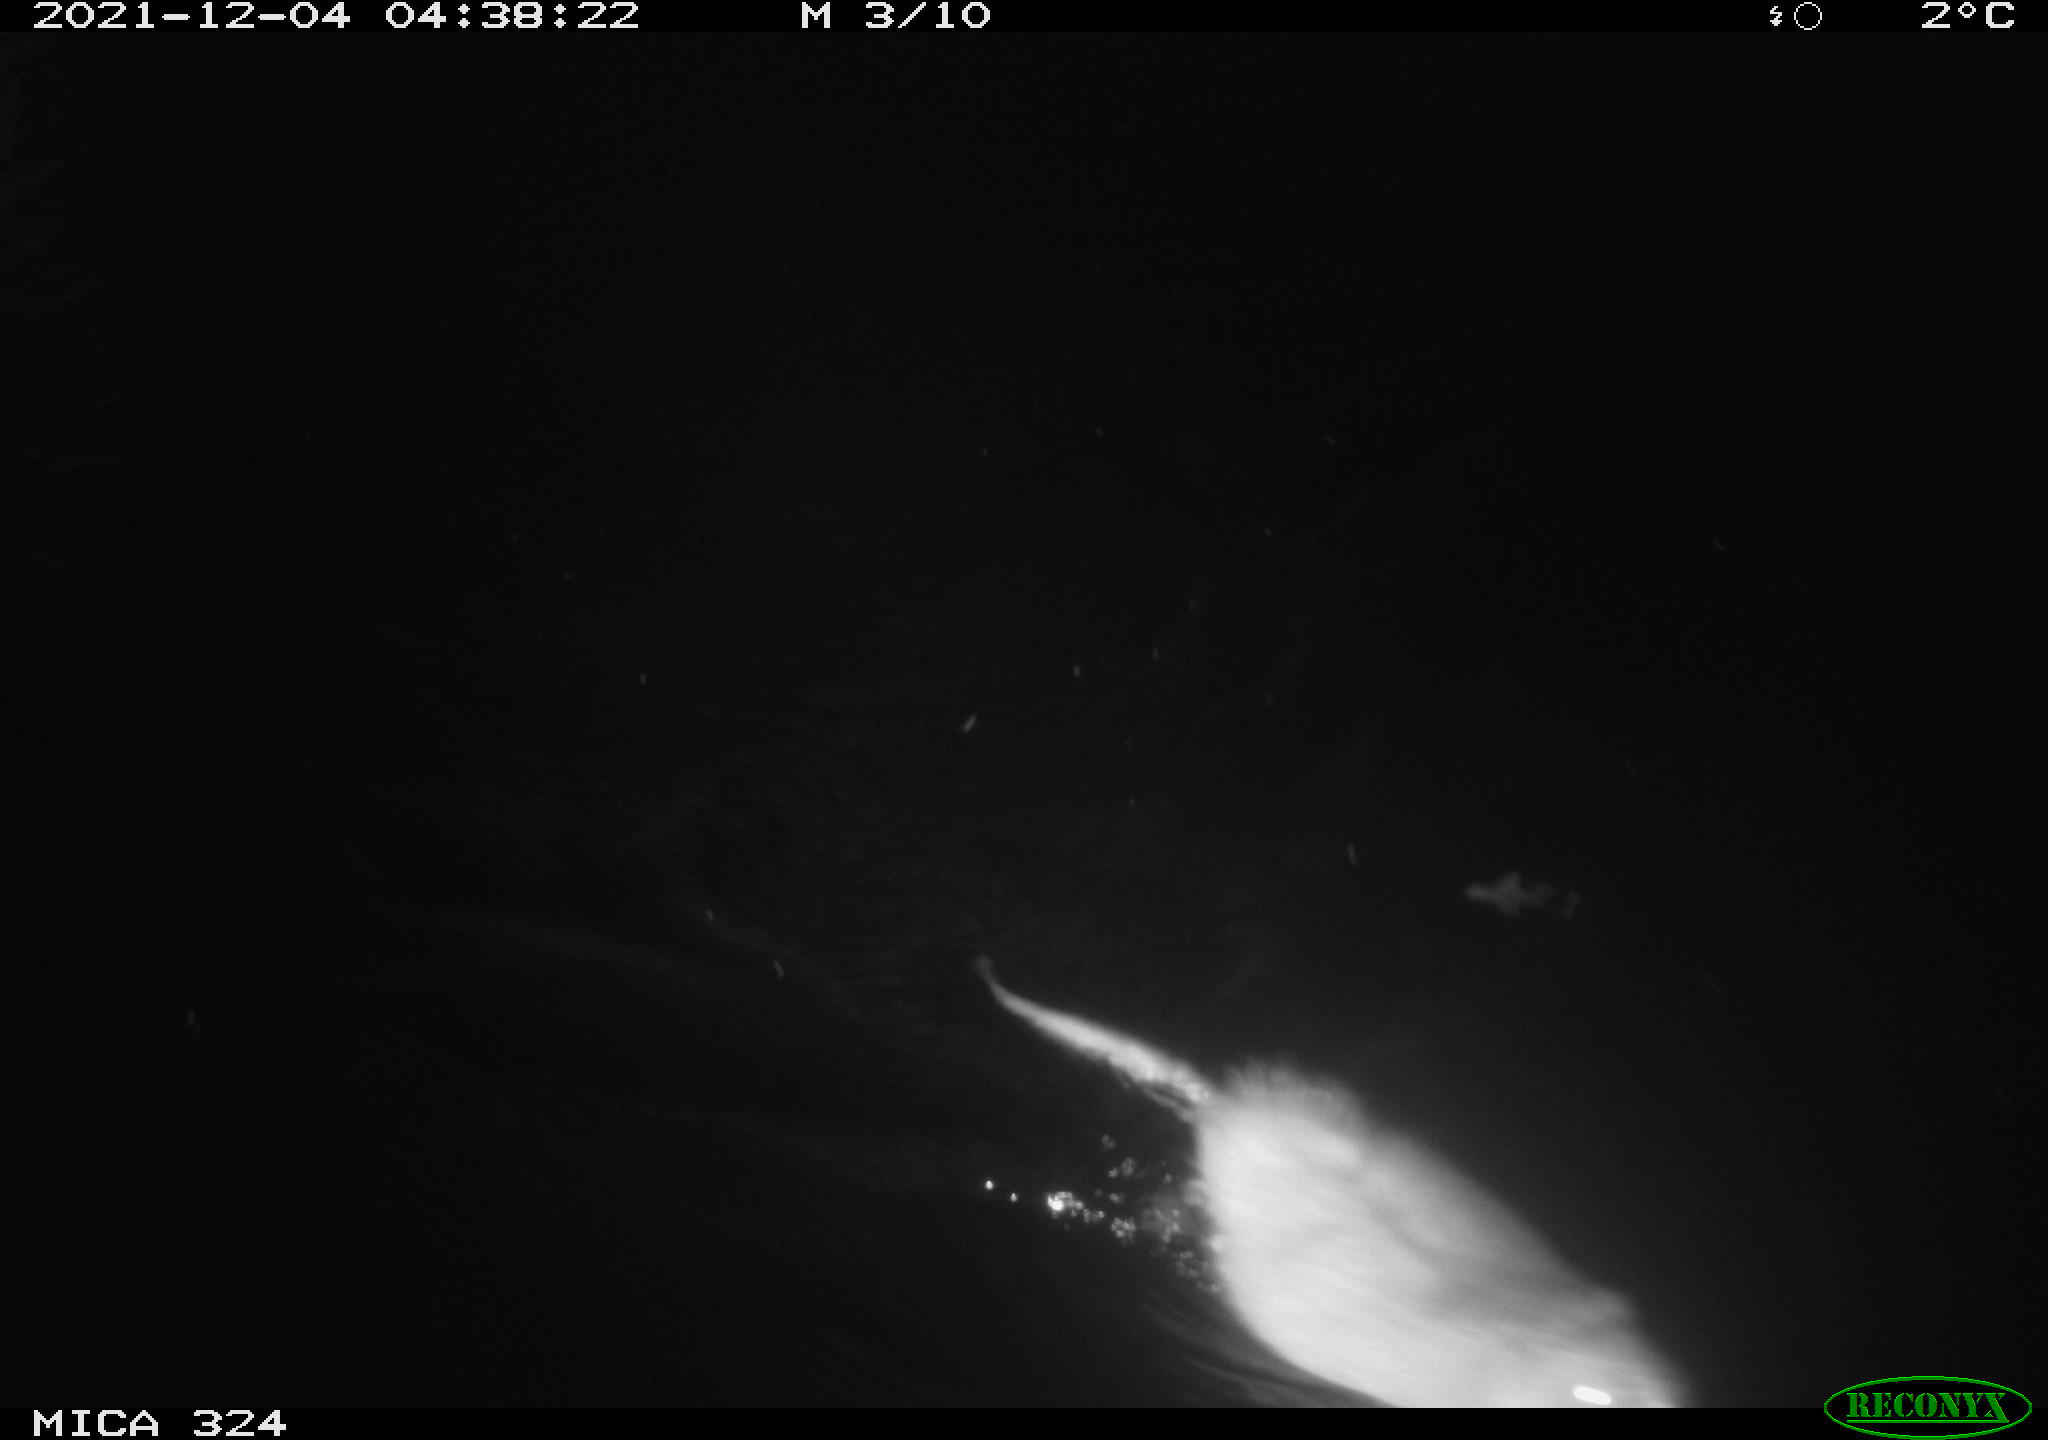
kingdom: Animalia
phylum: Chordata
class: Mammalia
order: Rodentia
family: Cricetidae
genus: Ondatra
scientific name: Ondatra zibethicus
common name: Muskrat
